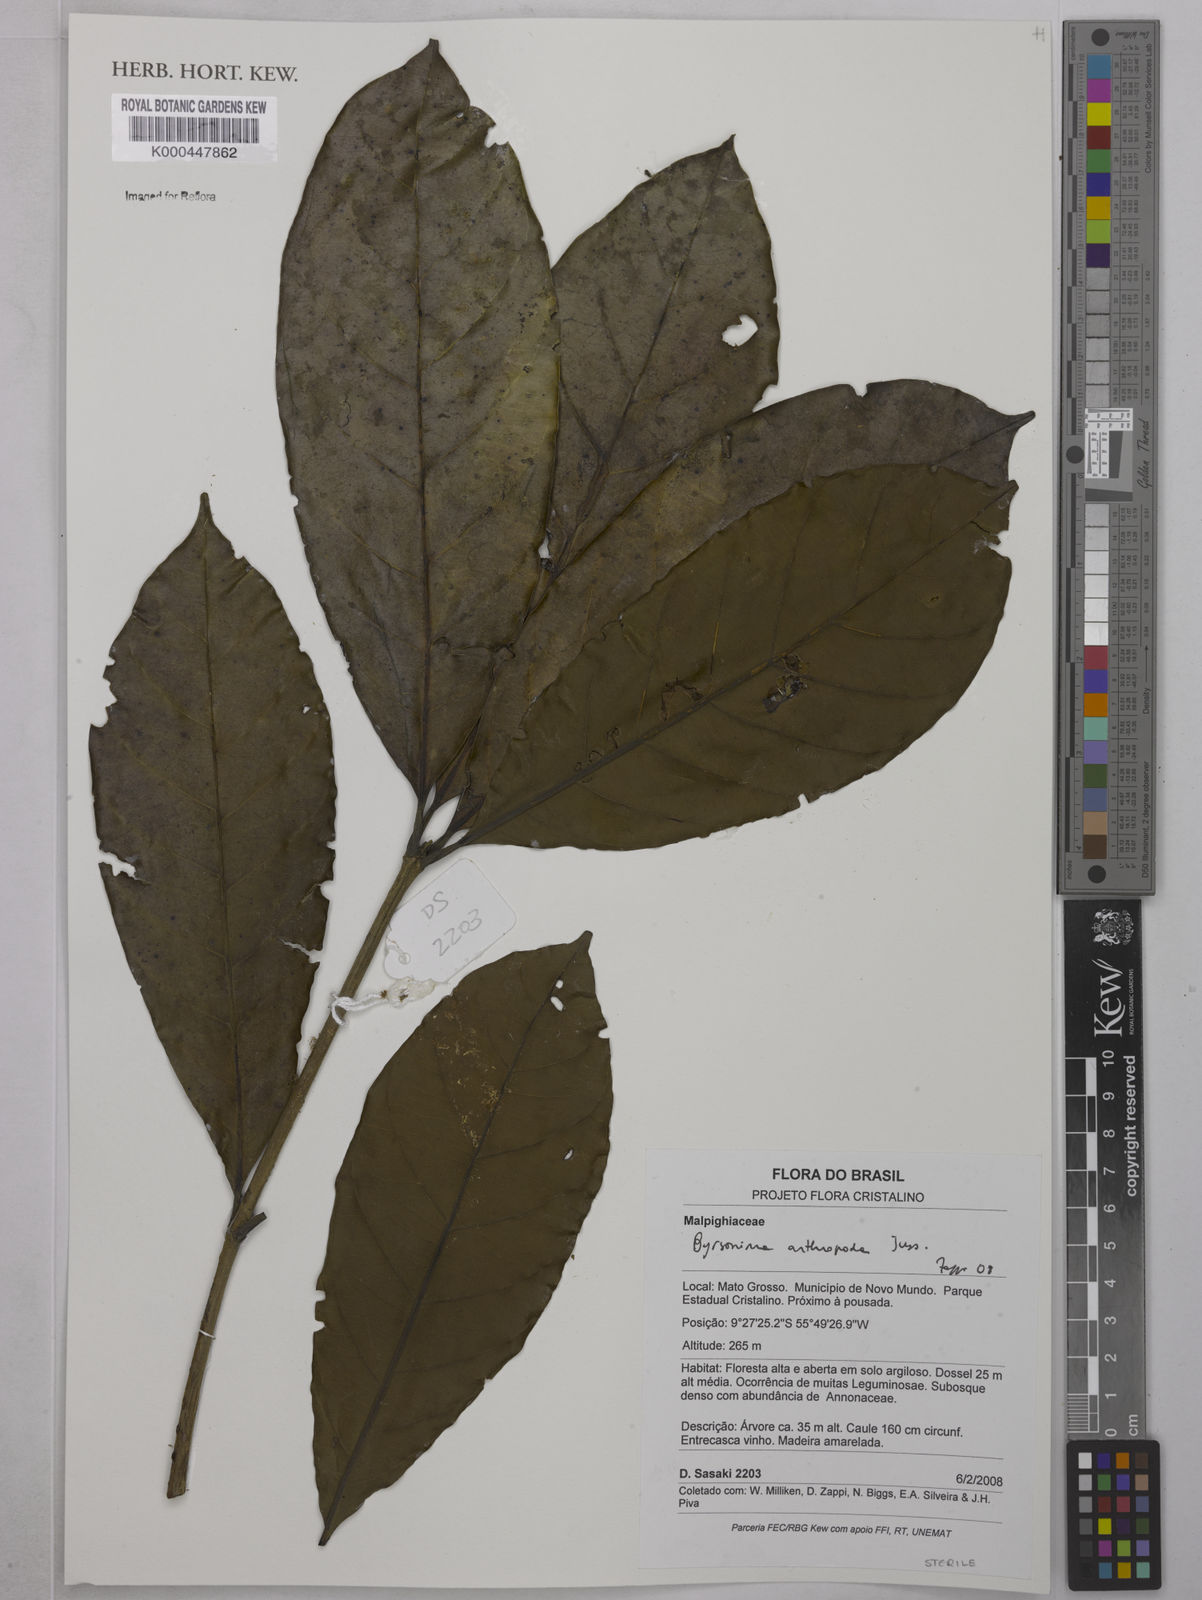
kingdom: Plantae
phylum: Tracheophyta
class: Magnoliopsida
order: Malpighiales
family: Malpighiaceae
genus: Byrsonima
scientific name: Byrsonima arthropoda
